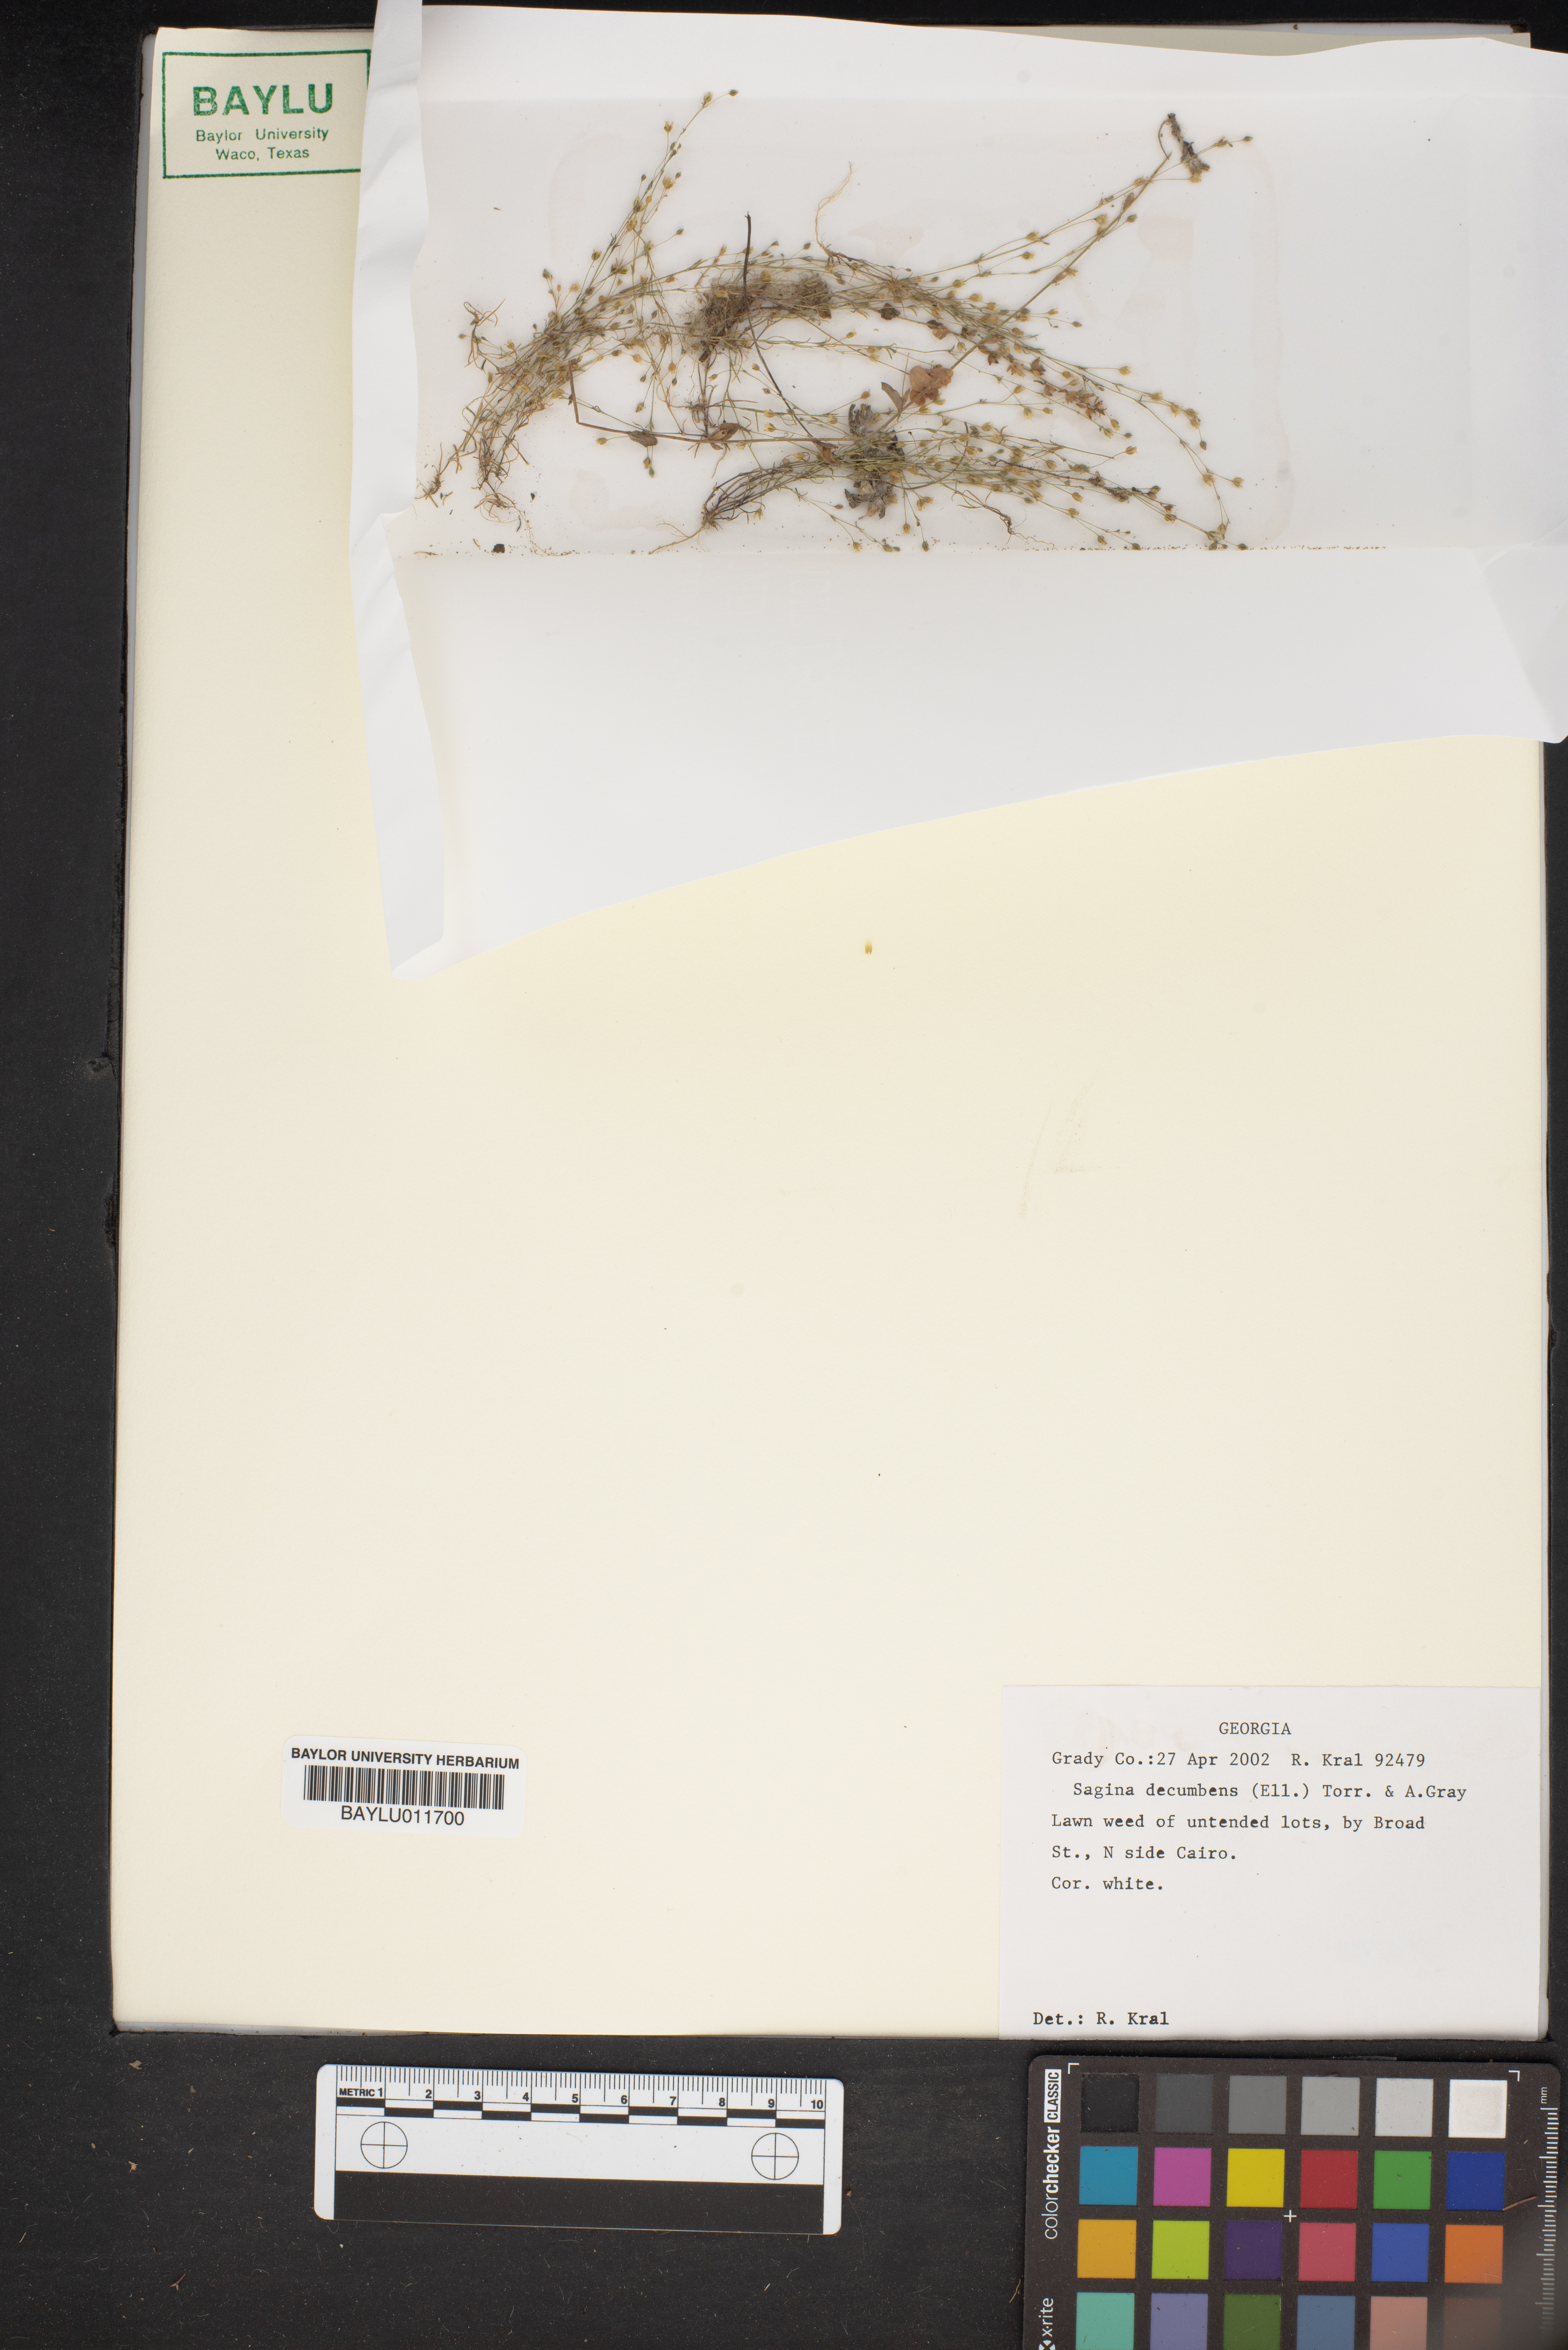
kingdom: Plantae
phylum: Tracheophyta
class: Magnoliopsida
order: Caryophyllales
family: Caryophyllaceae
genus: Sagina
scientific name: Sagina decumbens
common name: Decumbent pearlwort
